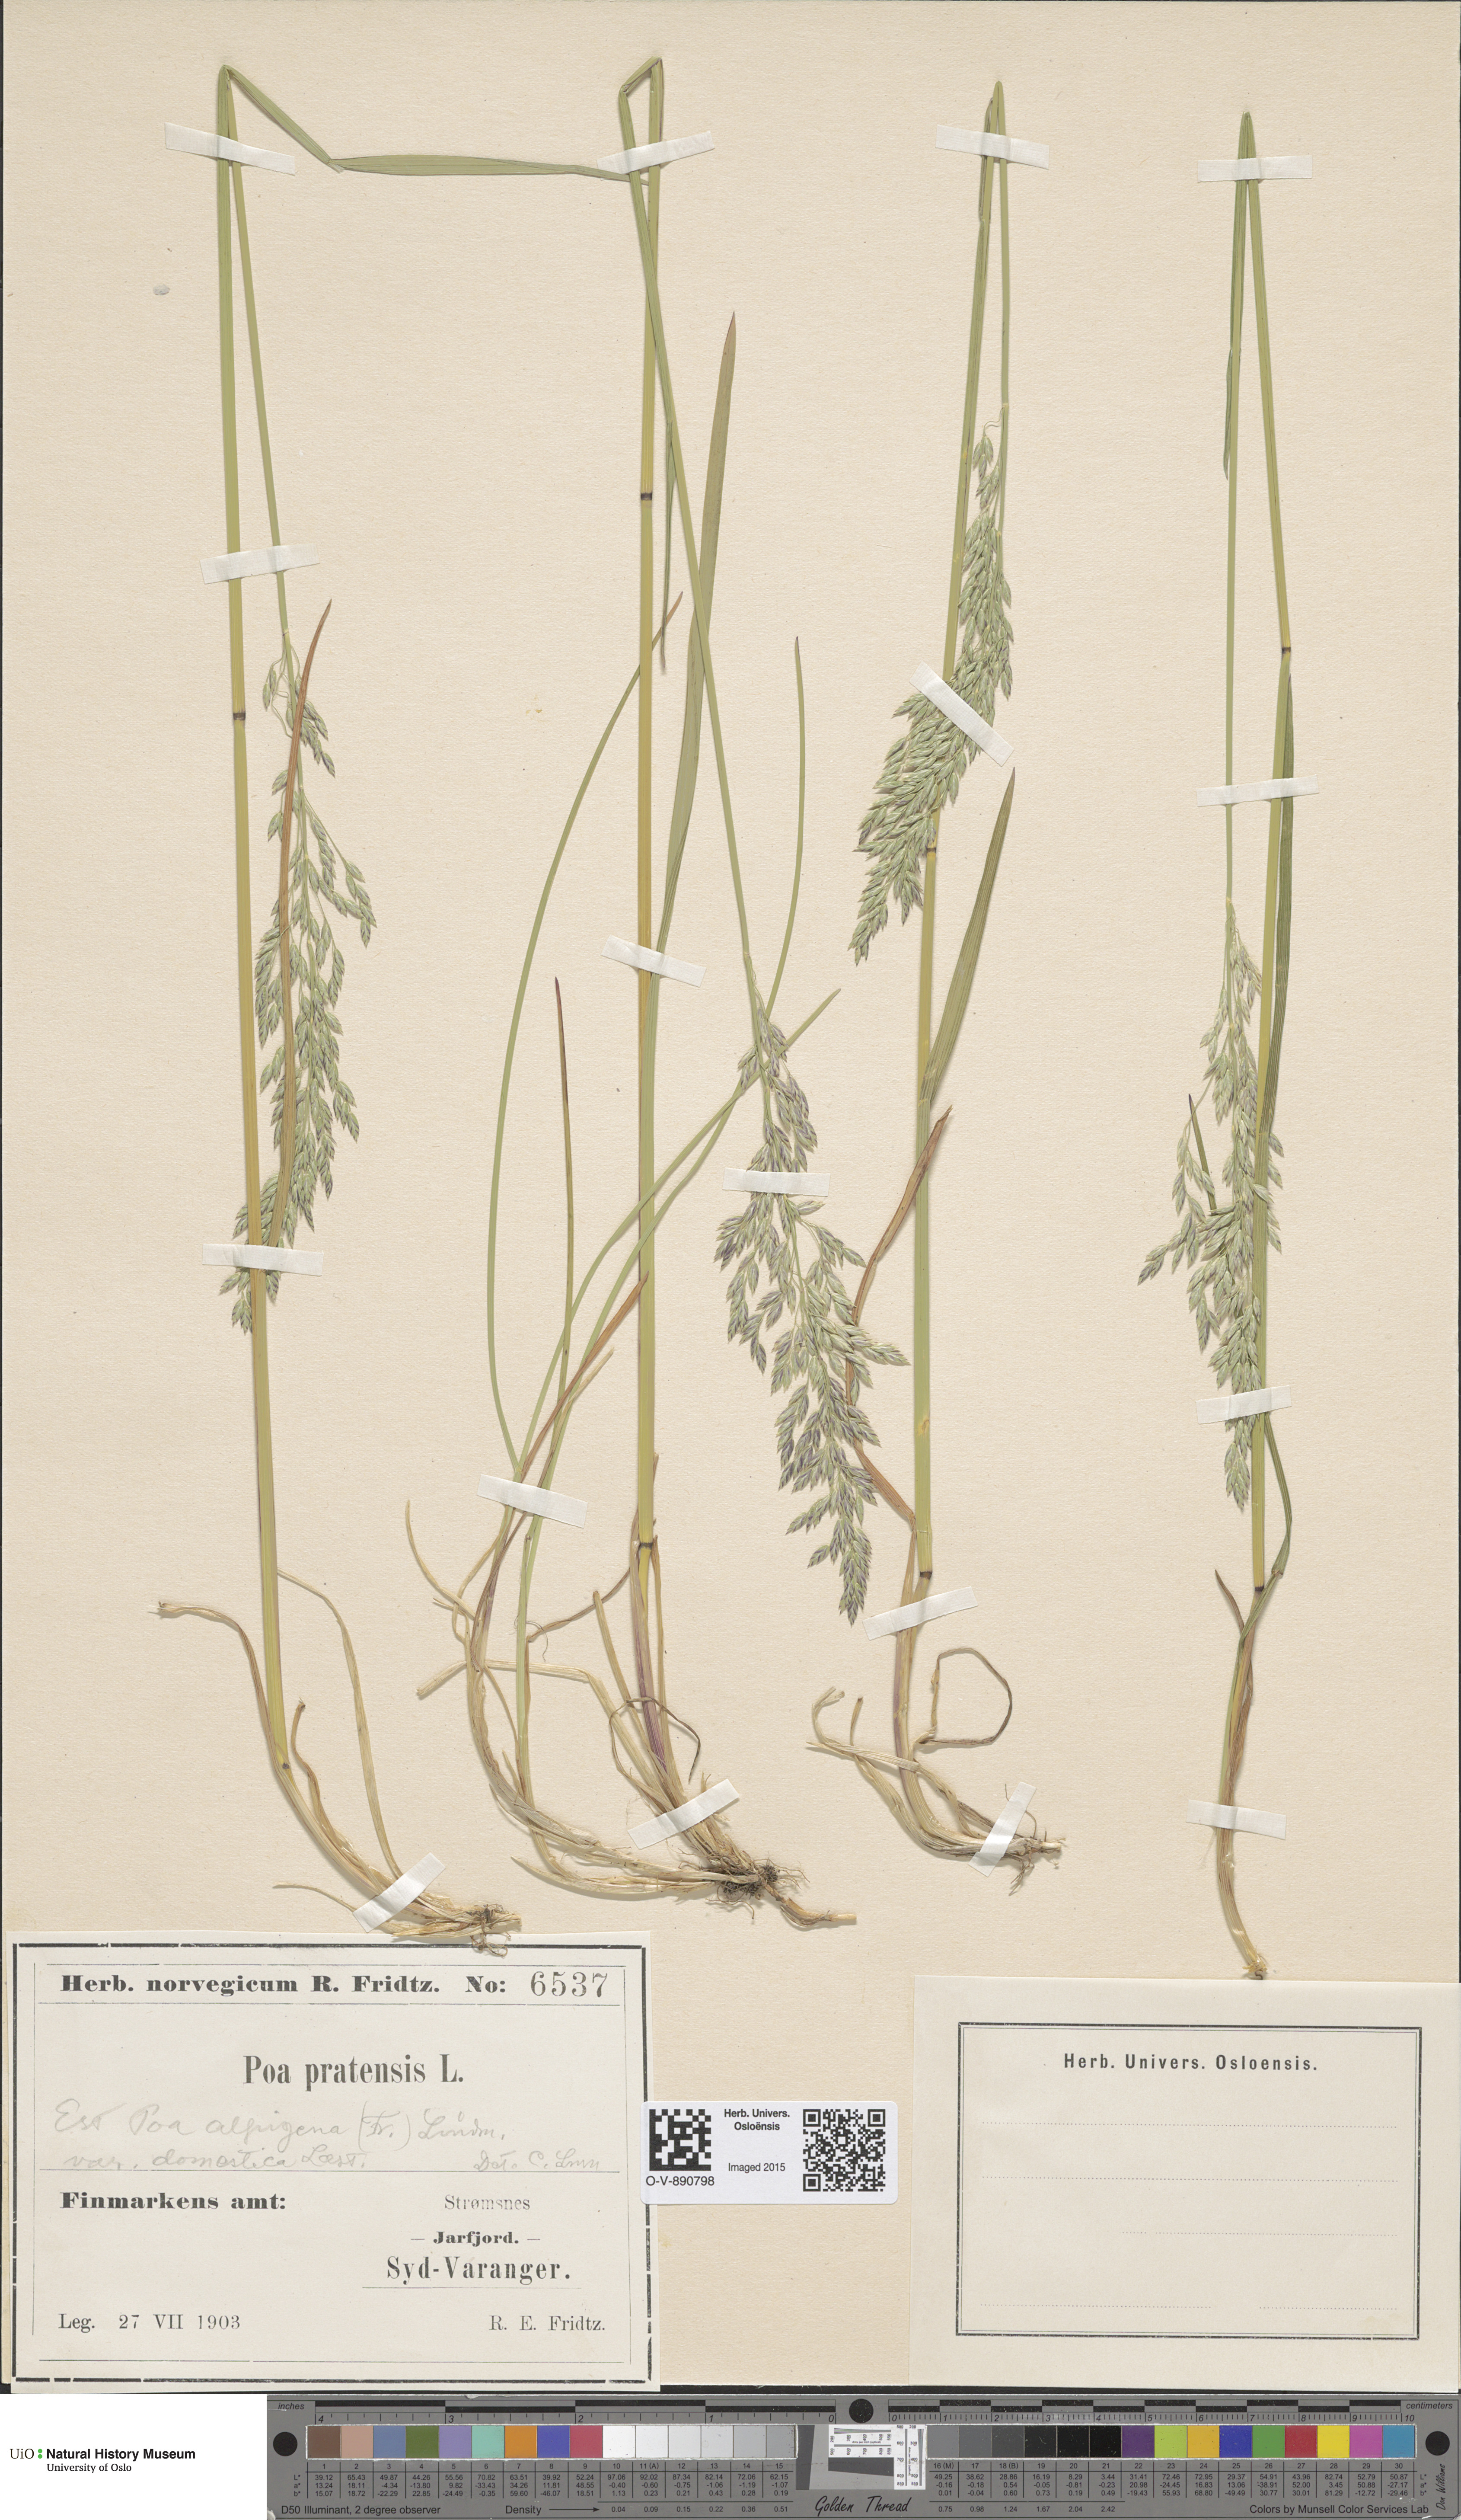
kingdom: Plantae
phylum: Tracheophyta
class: Liliopsida
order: Poales
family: Poaceae
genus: Poa
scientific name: Poa pratensis
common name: Kentucky bluegrass
